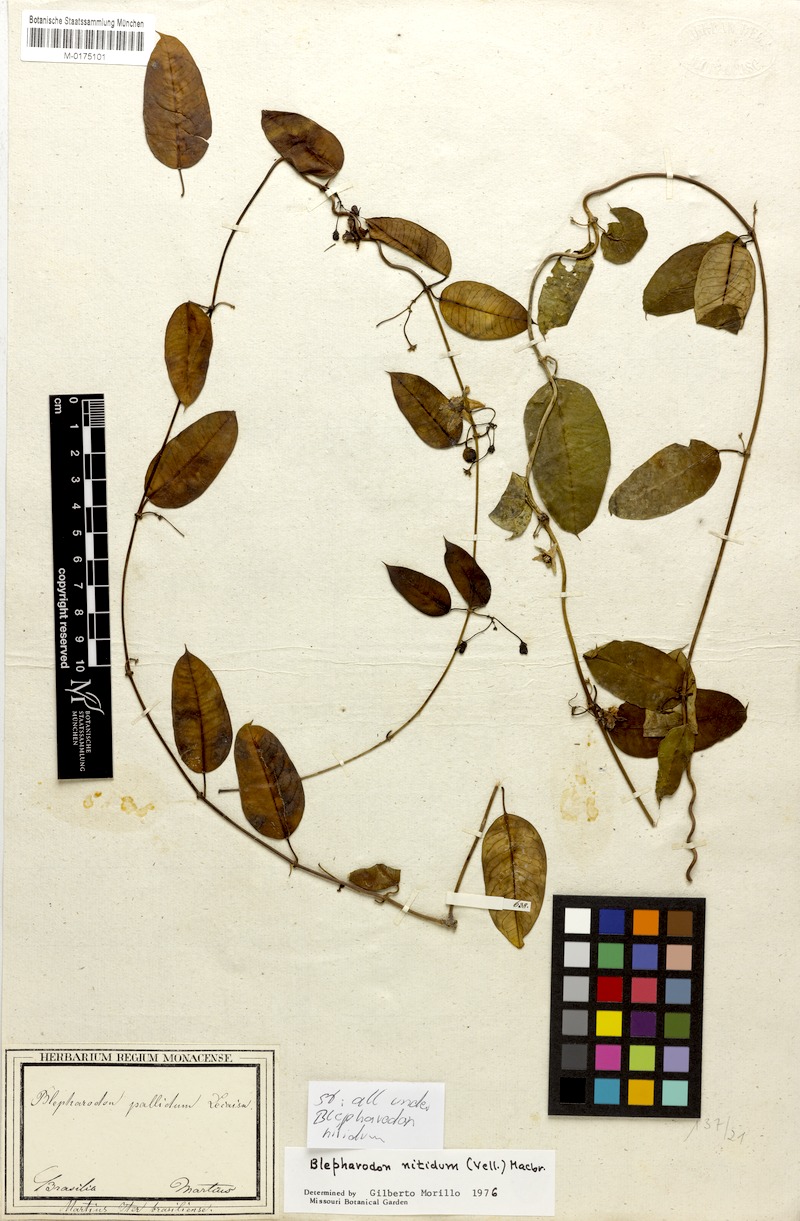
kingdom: Plantae
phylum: Tracheophyta
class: Magnoliopsida
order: Gentianales
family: Apocynaceae
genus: Blepharodon
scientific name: Blepharodon pictum
